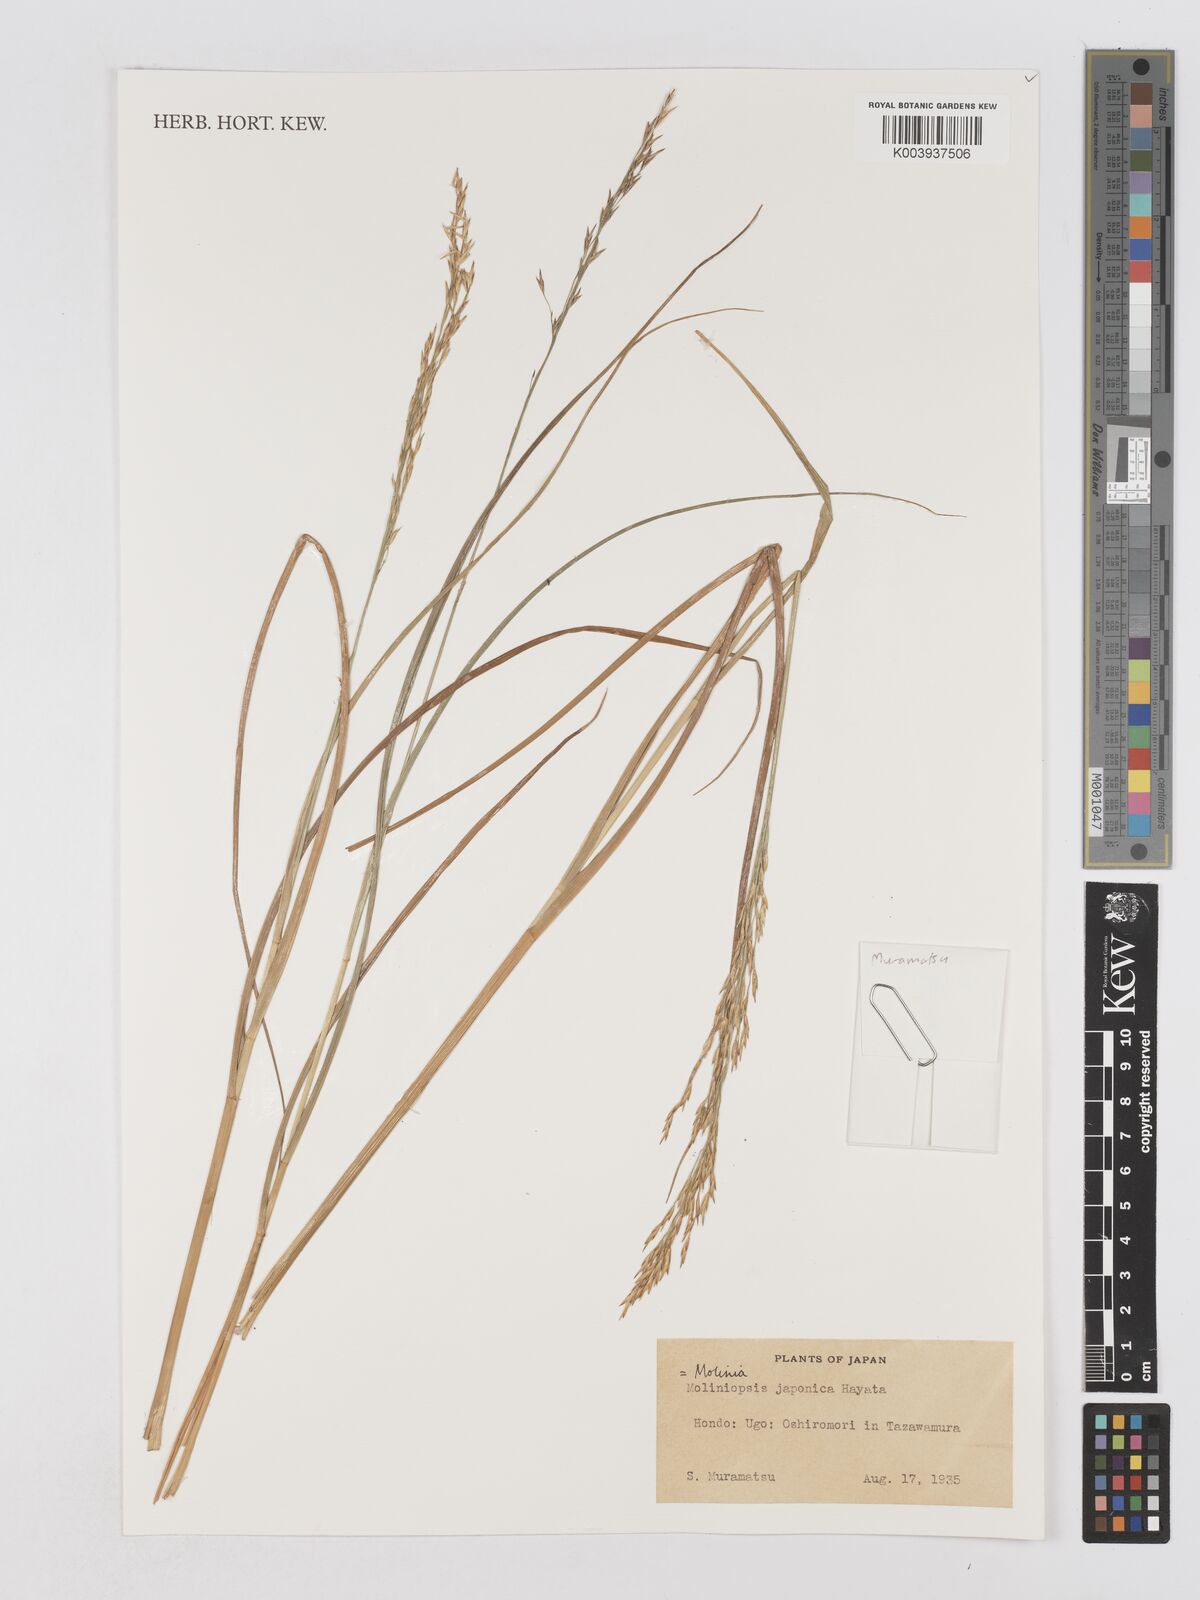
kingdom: Plantae
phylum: Tracheophyta
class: Liliopsida
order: Poales
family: Poaceae
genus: Moliniopsis
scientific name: Moliniopsis japonica
